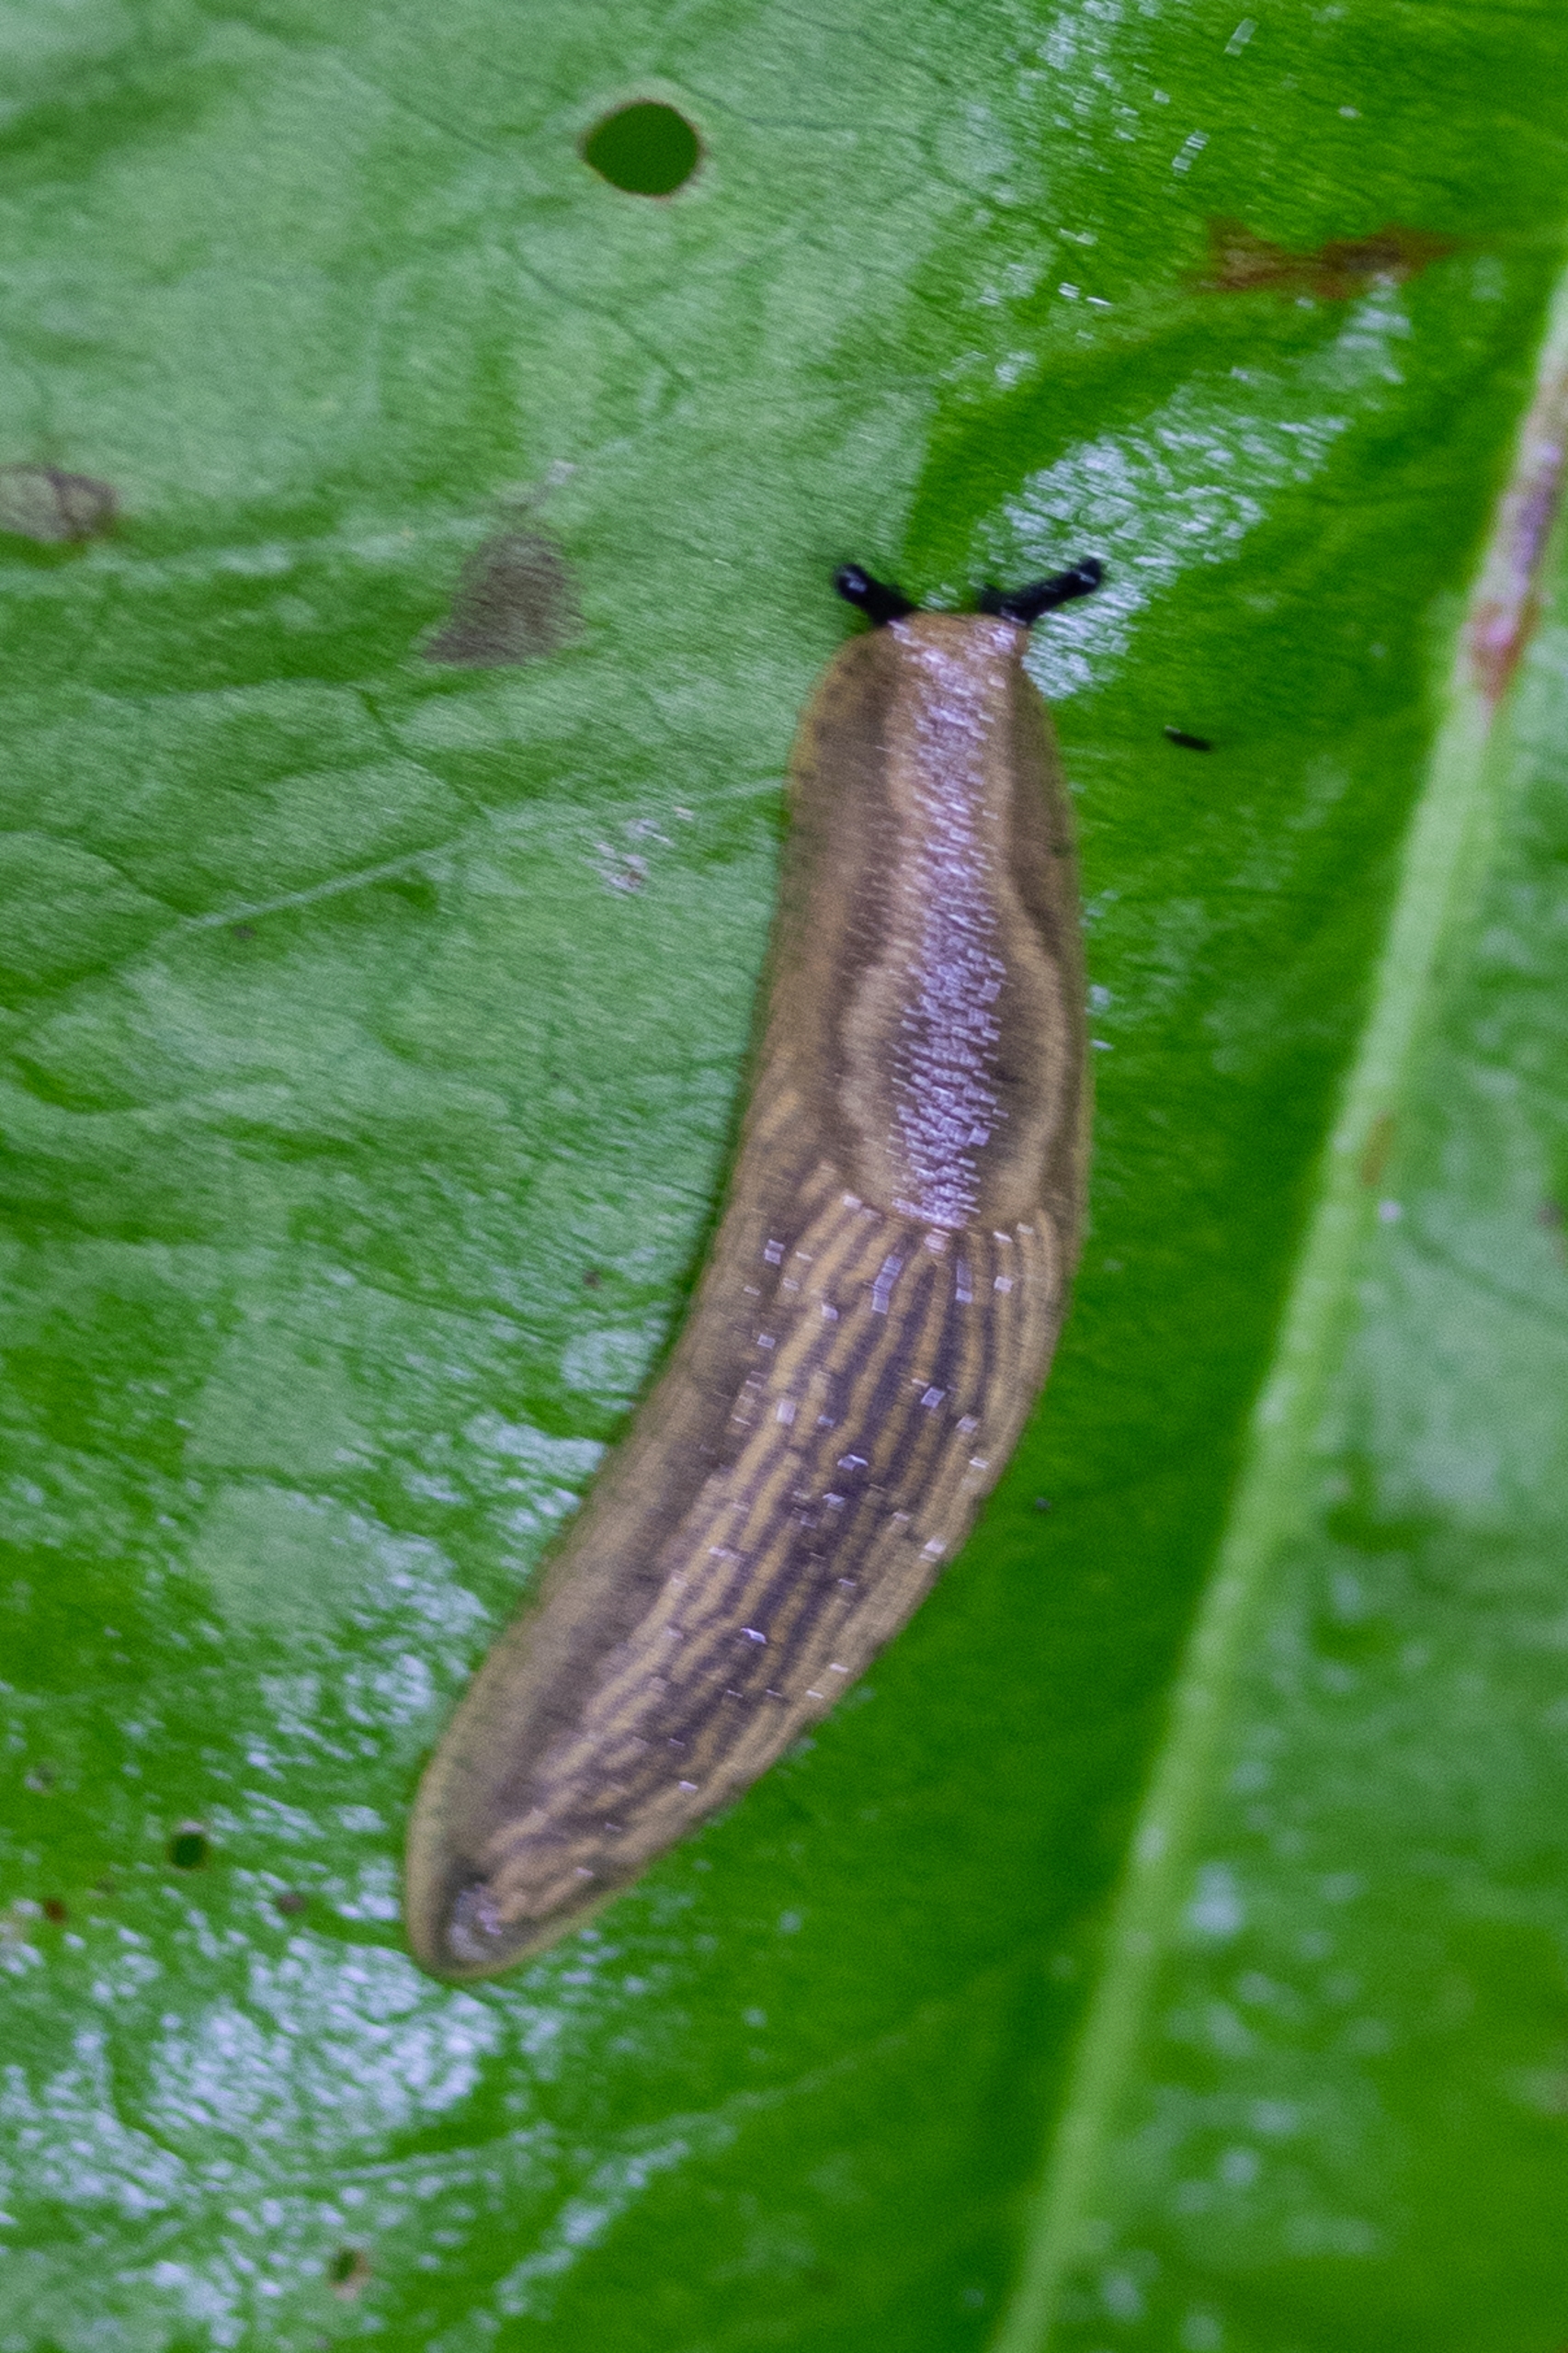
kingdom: Animalia
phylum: Mollusca
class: Gastropoda
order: Stylommatophora
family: Arionidae
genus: Arion
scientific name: Arion
